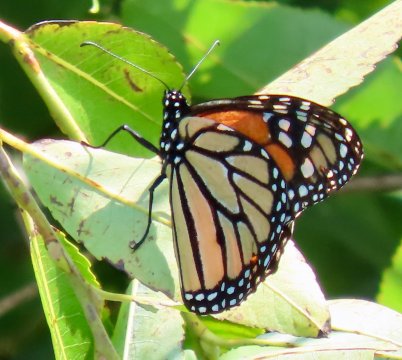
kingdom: Animalia
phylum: Arthropoda
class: Insecta
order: Lepidoptera
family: Nymphalidae
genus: Danaus
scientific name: Danaus plexippus
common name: Monarch
